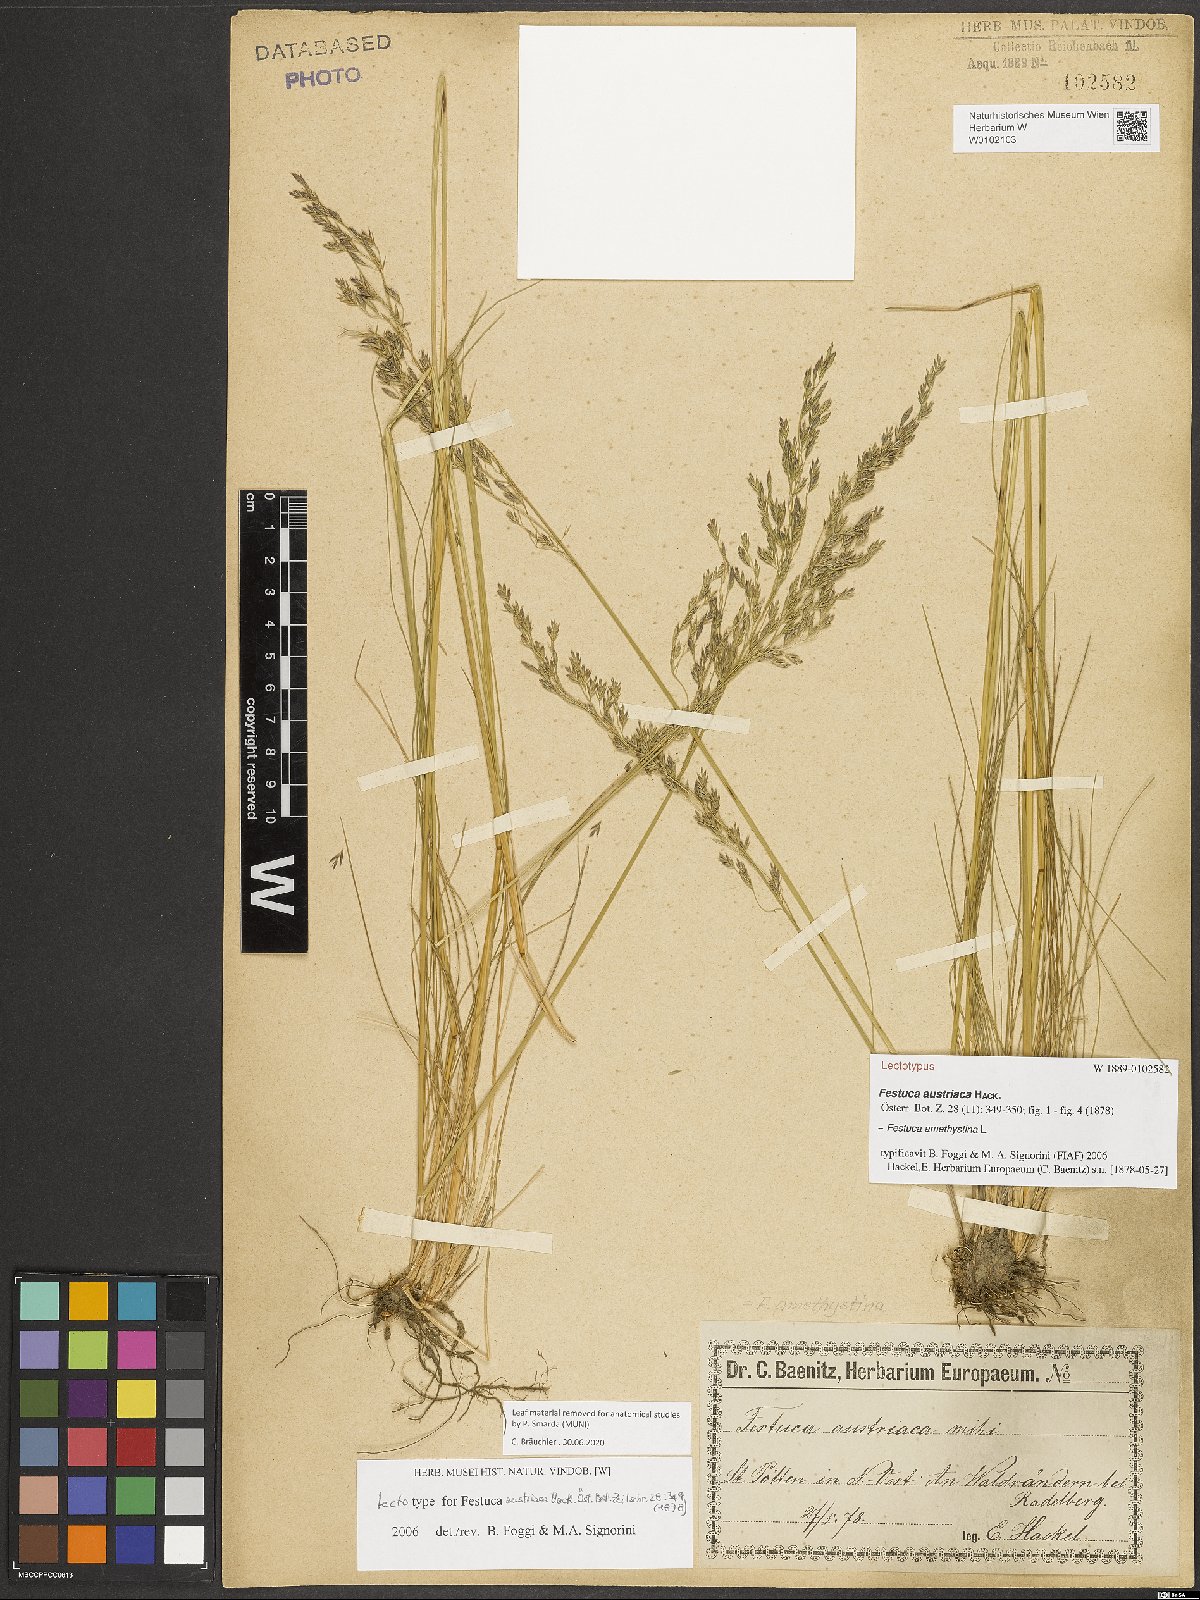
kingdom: Plantae
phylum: Tracheophyta
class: Liliopsida
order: Poales
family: Poaceae
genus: Festuca
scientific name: Festuca amethystina
